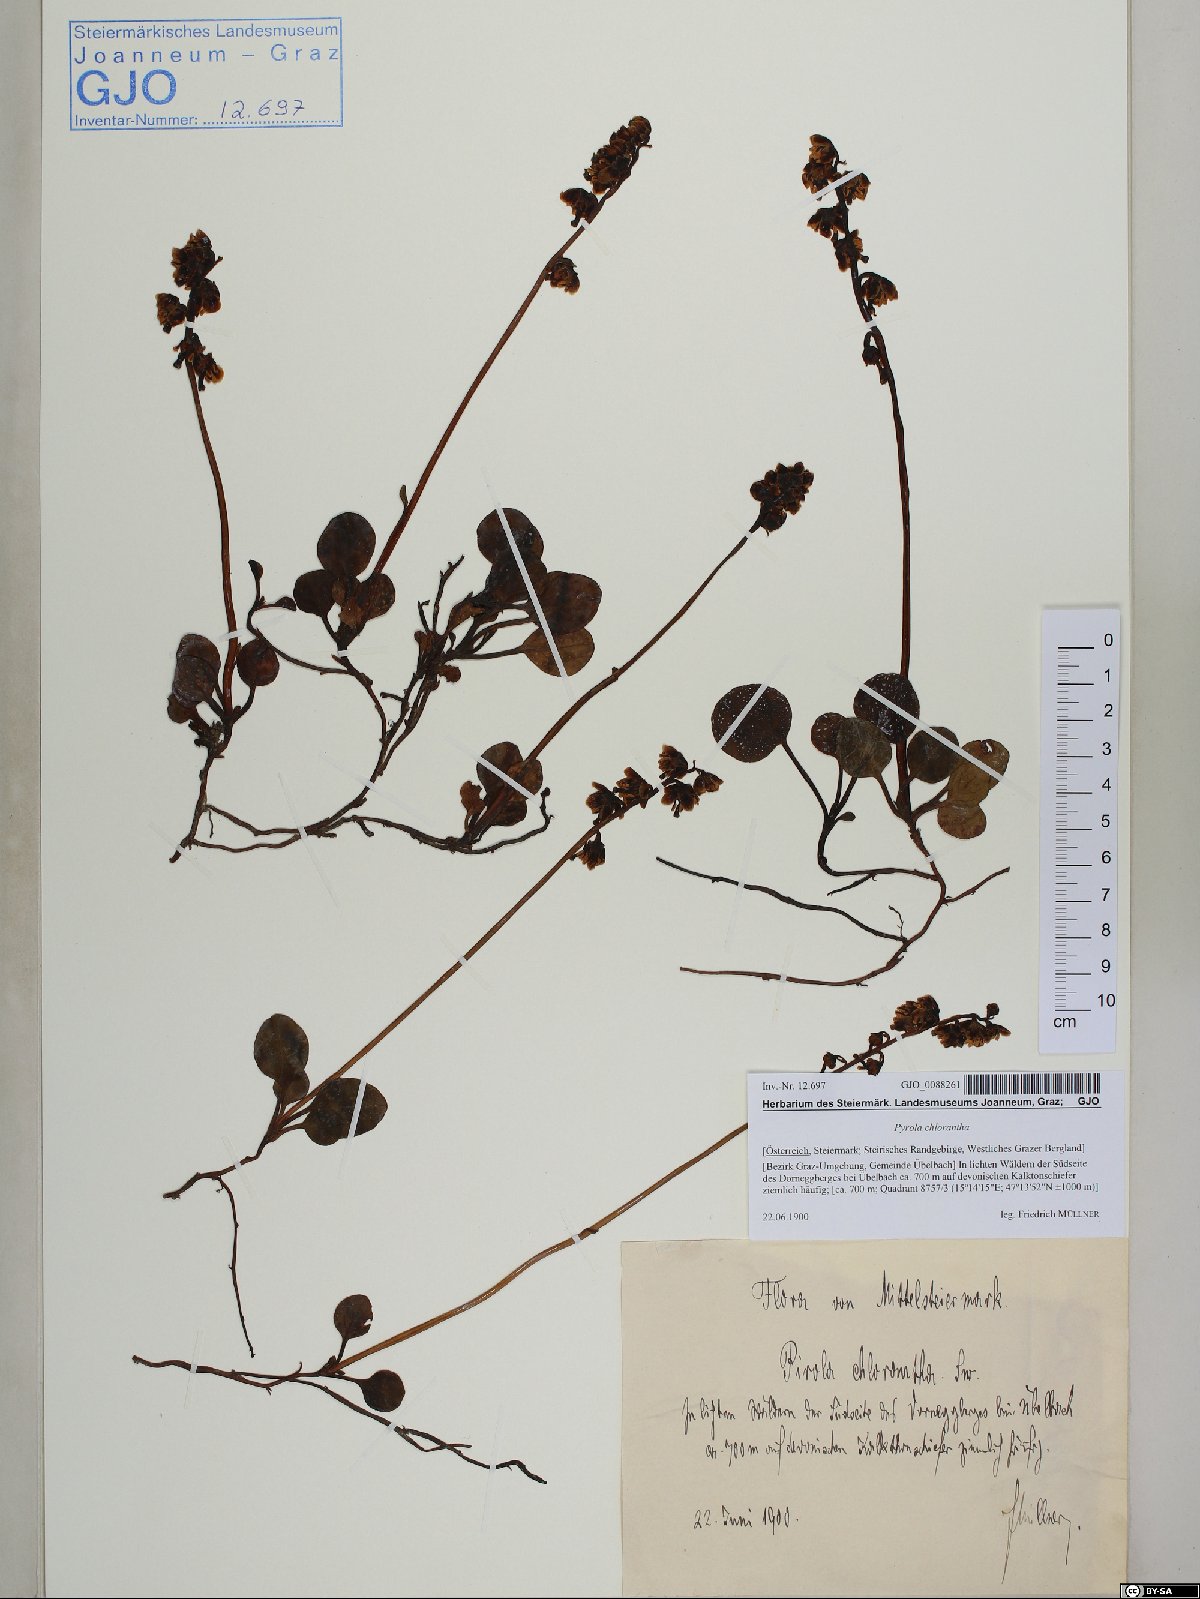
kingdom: Plantae
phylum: Tracheophyta
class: Magnoliopsida
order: Ericales
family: Ericaceae
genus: Pyrola
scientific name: Pyrola chlorantha
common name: Green wintergreen
